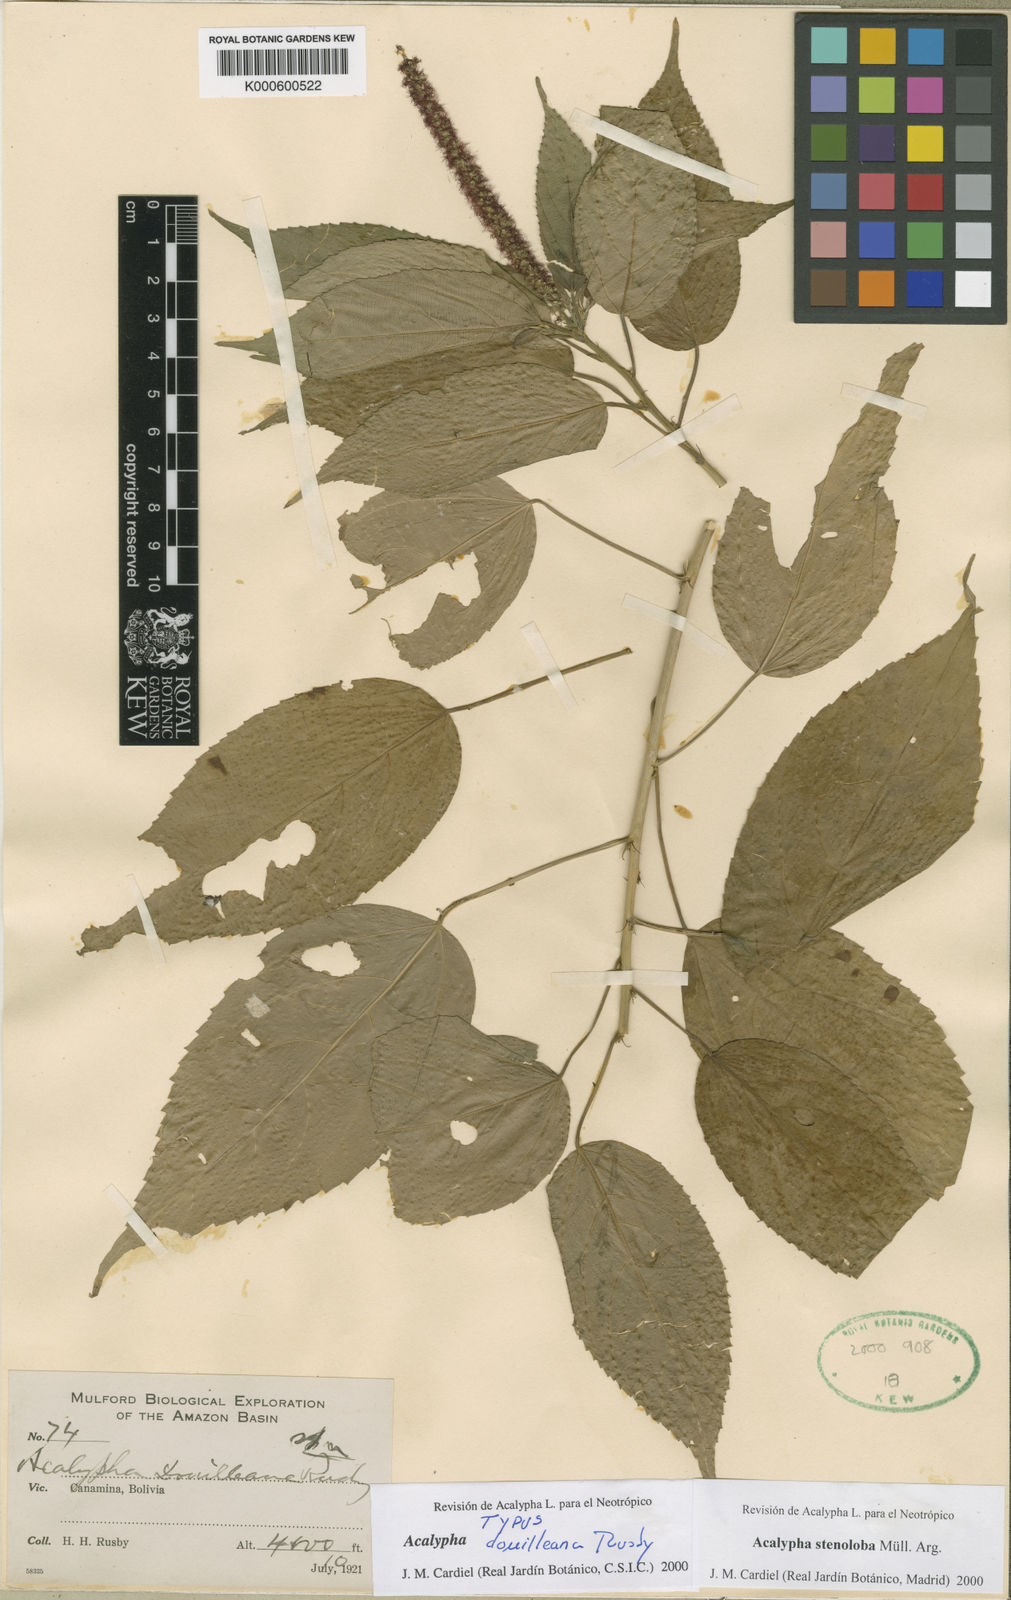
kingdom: Plantae
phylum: Tracheophyta
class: Magnoliopsida
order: Malpighiales
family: Euphorbiaceae
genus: Acalypha
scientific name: Acalypha
